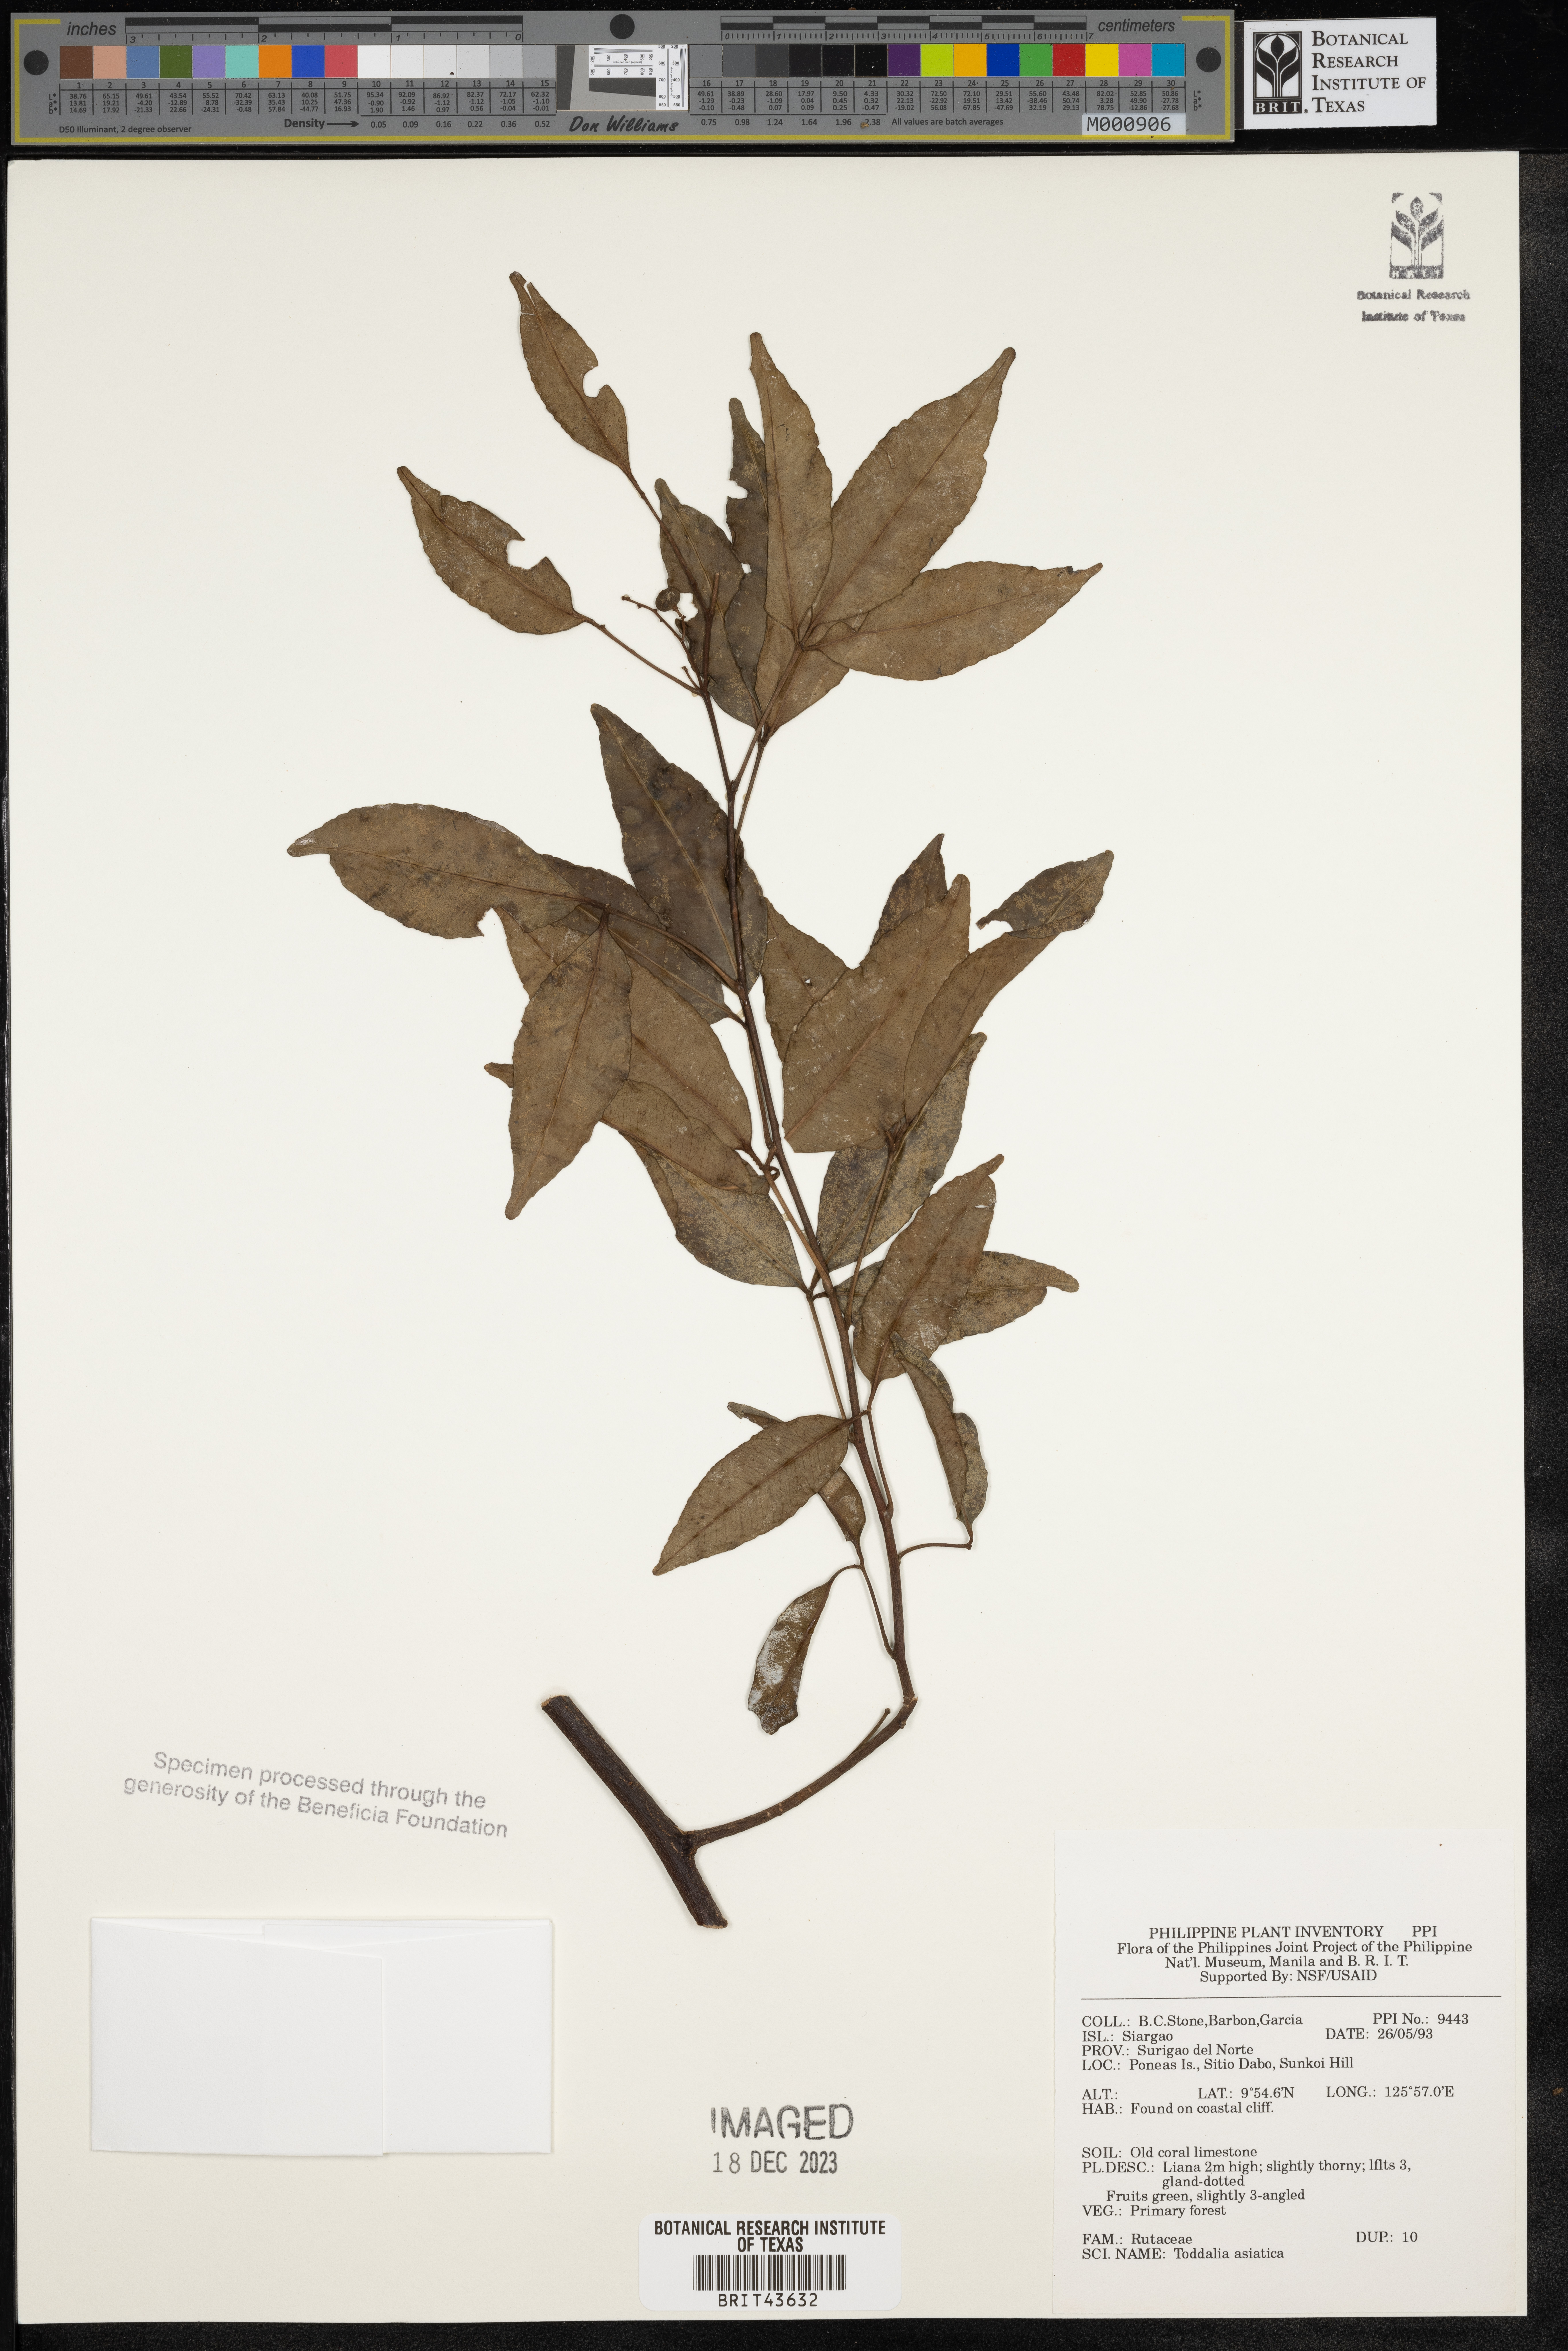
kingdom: Plantae
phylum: Tracheophyta
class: Magnoliopsida
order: Sapindales
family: Rutaceae
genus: Zanthoxylum
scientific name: Zanthoxylum asiaticum
